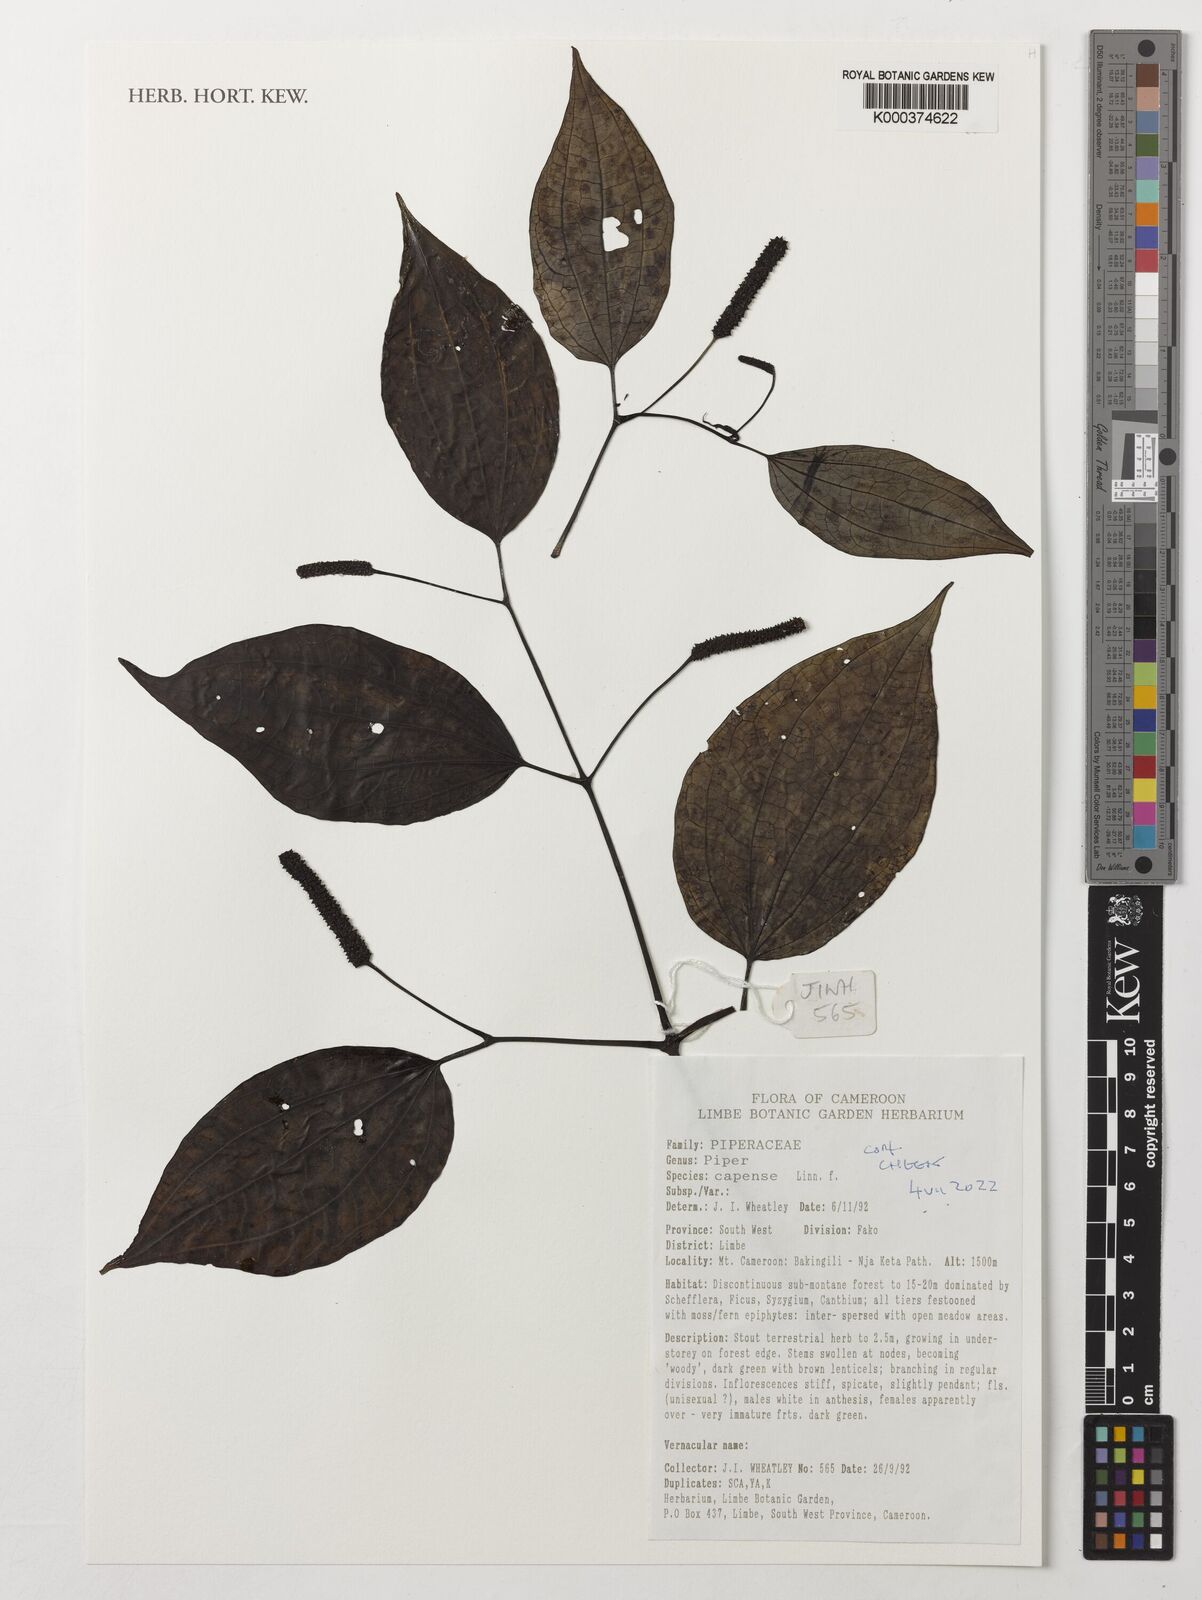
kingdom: Plantae
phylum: Tracheophyta
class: Magnoliopsida
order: Piperales
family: Piperaceae
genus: Piper
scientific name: Piper capense
